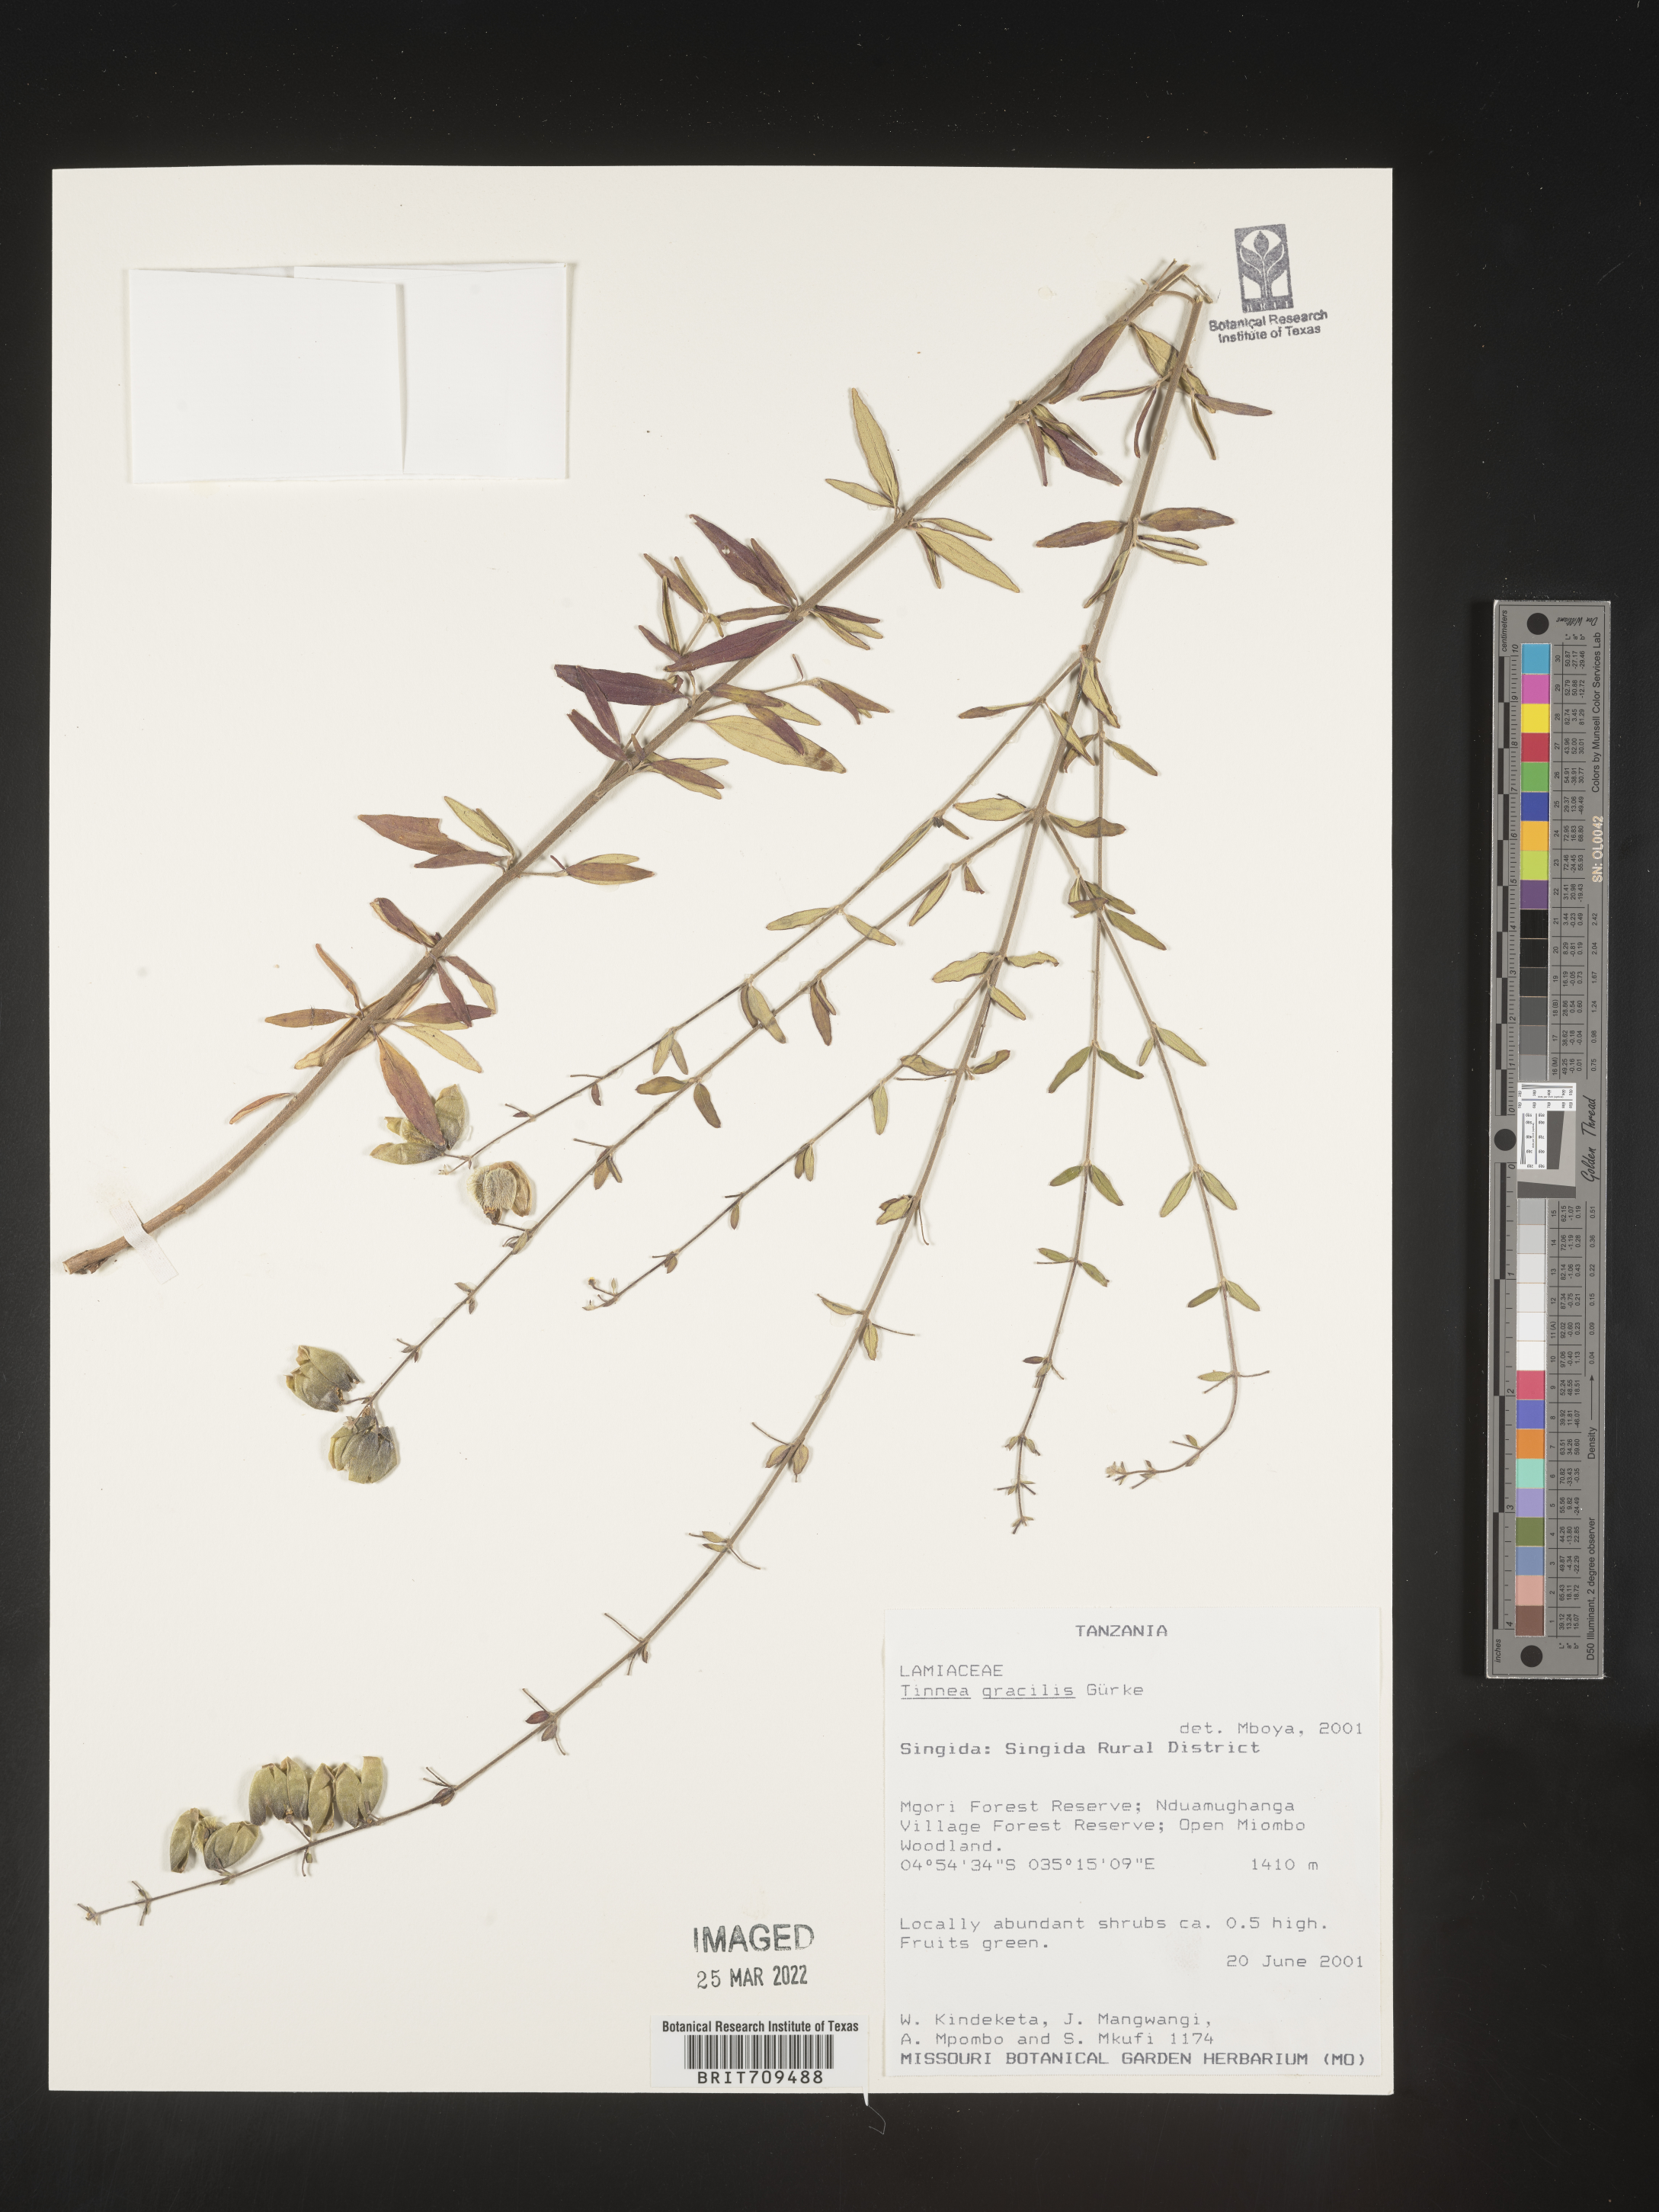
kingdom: Plantae
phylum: Tracheophyta
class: Magnoliopsida
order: Lamiales
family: Lamiaceae
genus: Tinnea
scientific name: Tinnea
